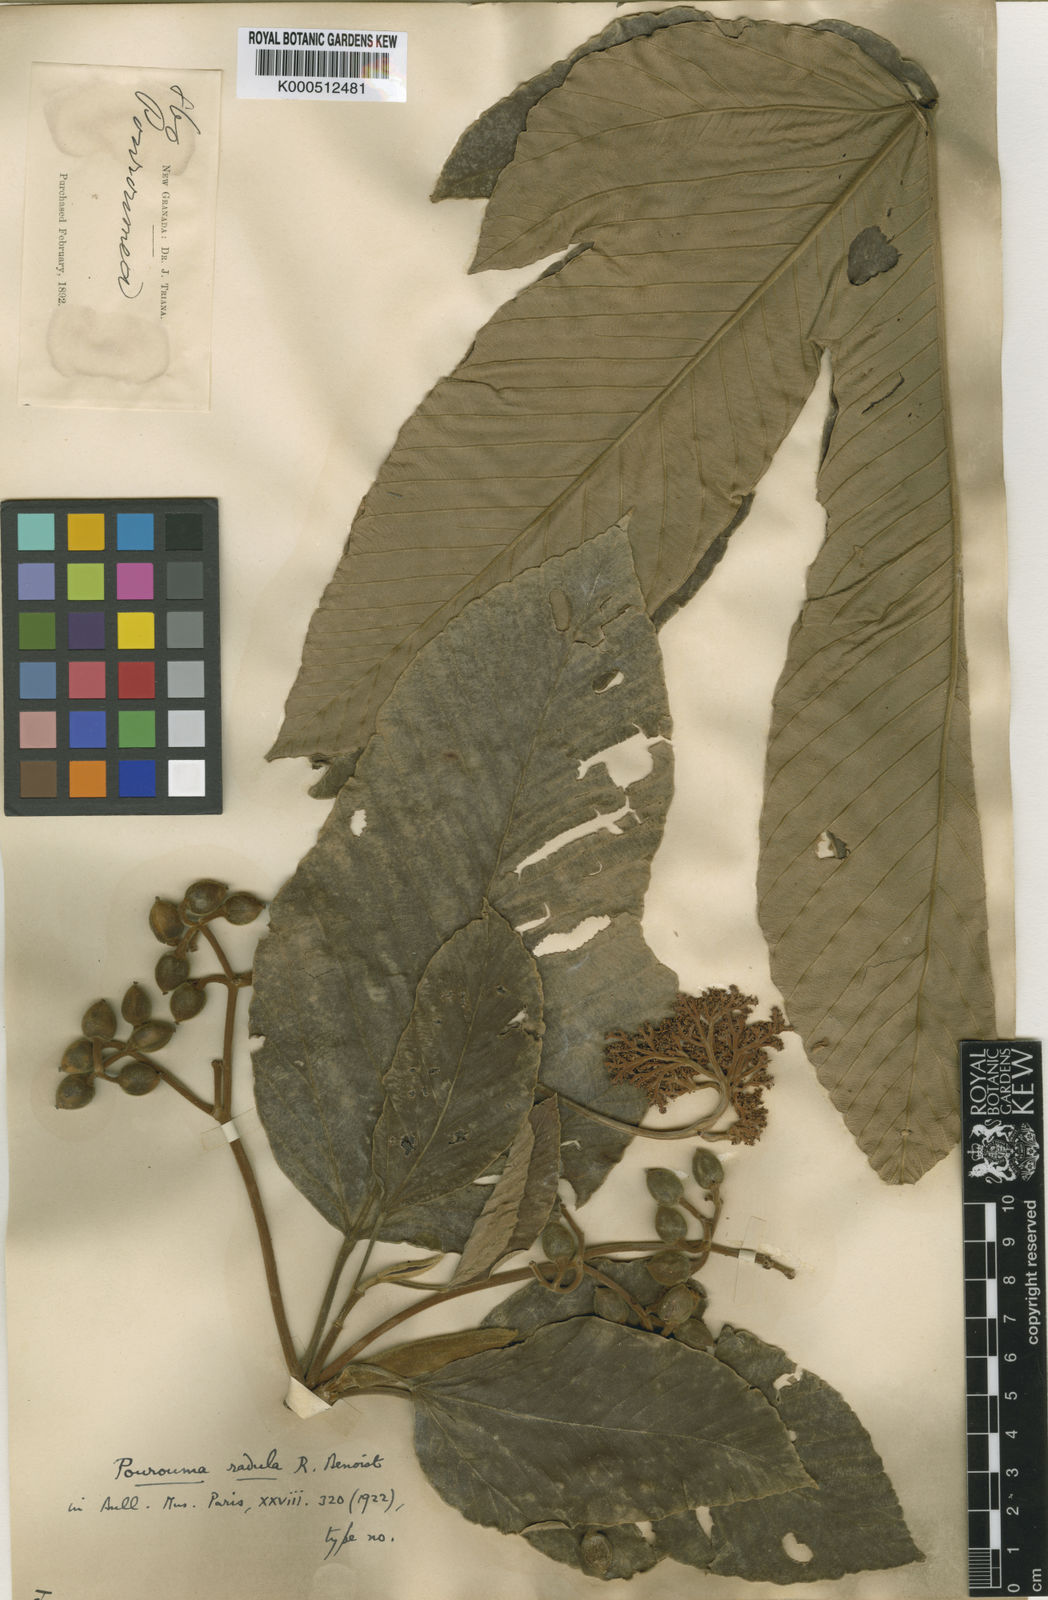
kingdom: Plantae
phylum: Tracheophyta
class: Magnoliopsida
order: Rosales
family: Urticaceae
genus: Pourouma
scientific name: Pourouma guianensis
